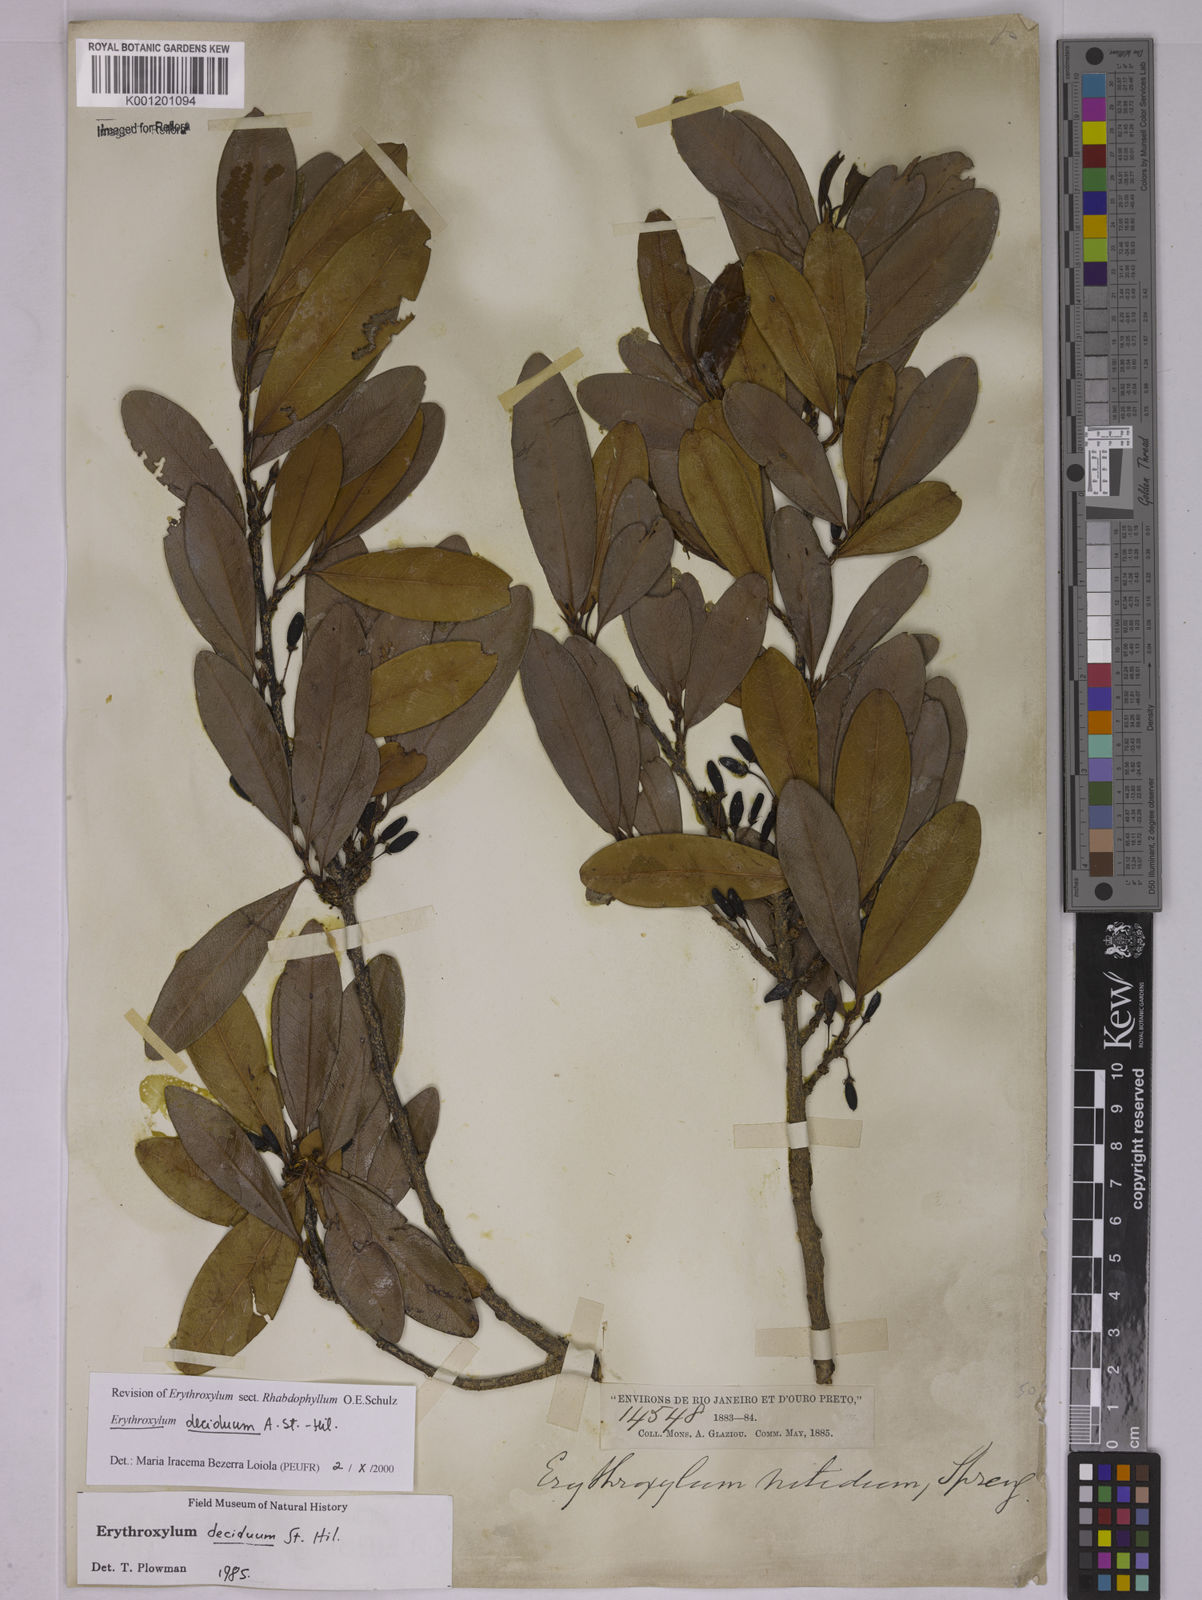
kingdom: Plantae
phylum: Tracheophyta
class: Magnoliopsida
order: Malpighiales
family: Erythroxylaceae
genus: Erythroxylum
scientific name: Erythroxylum deciduum
